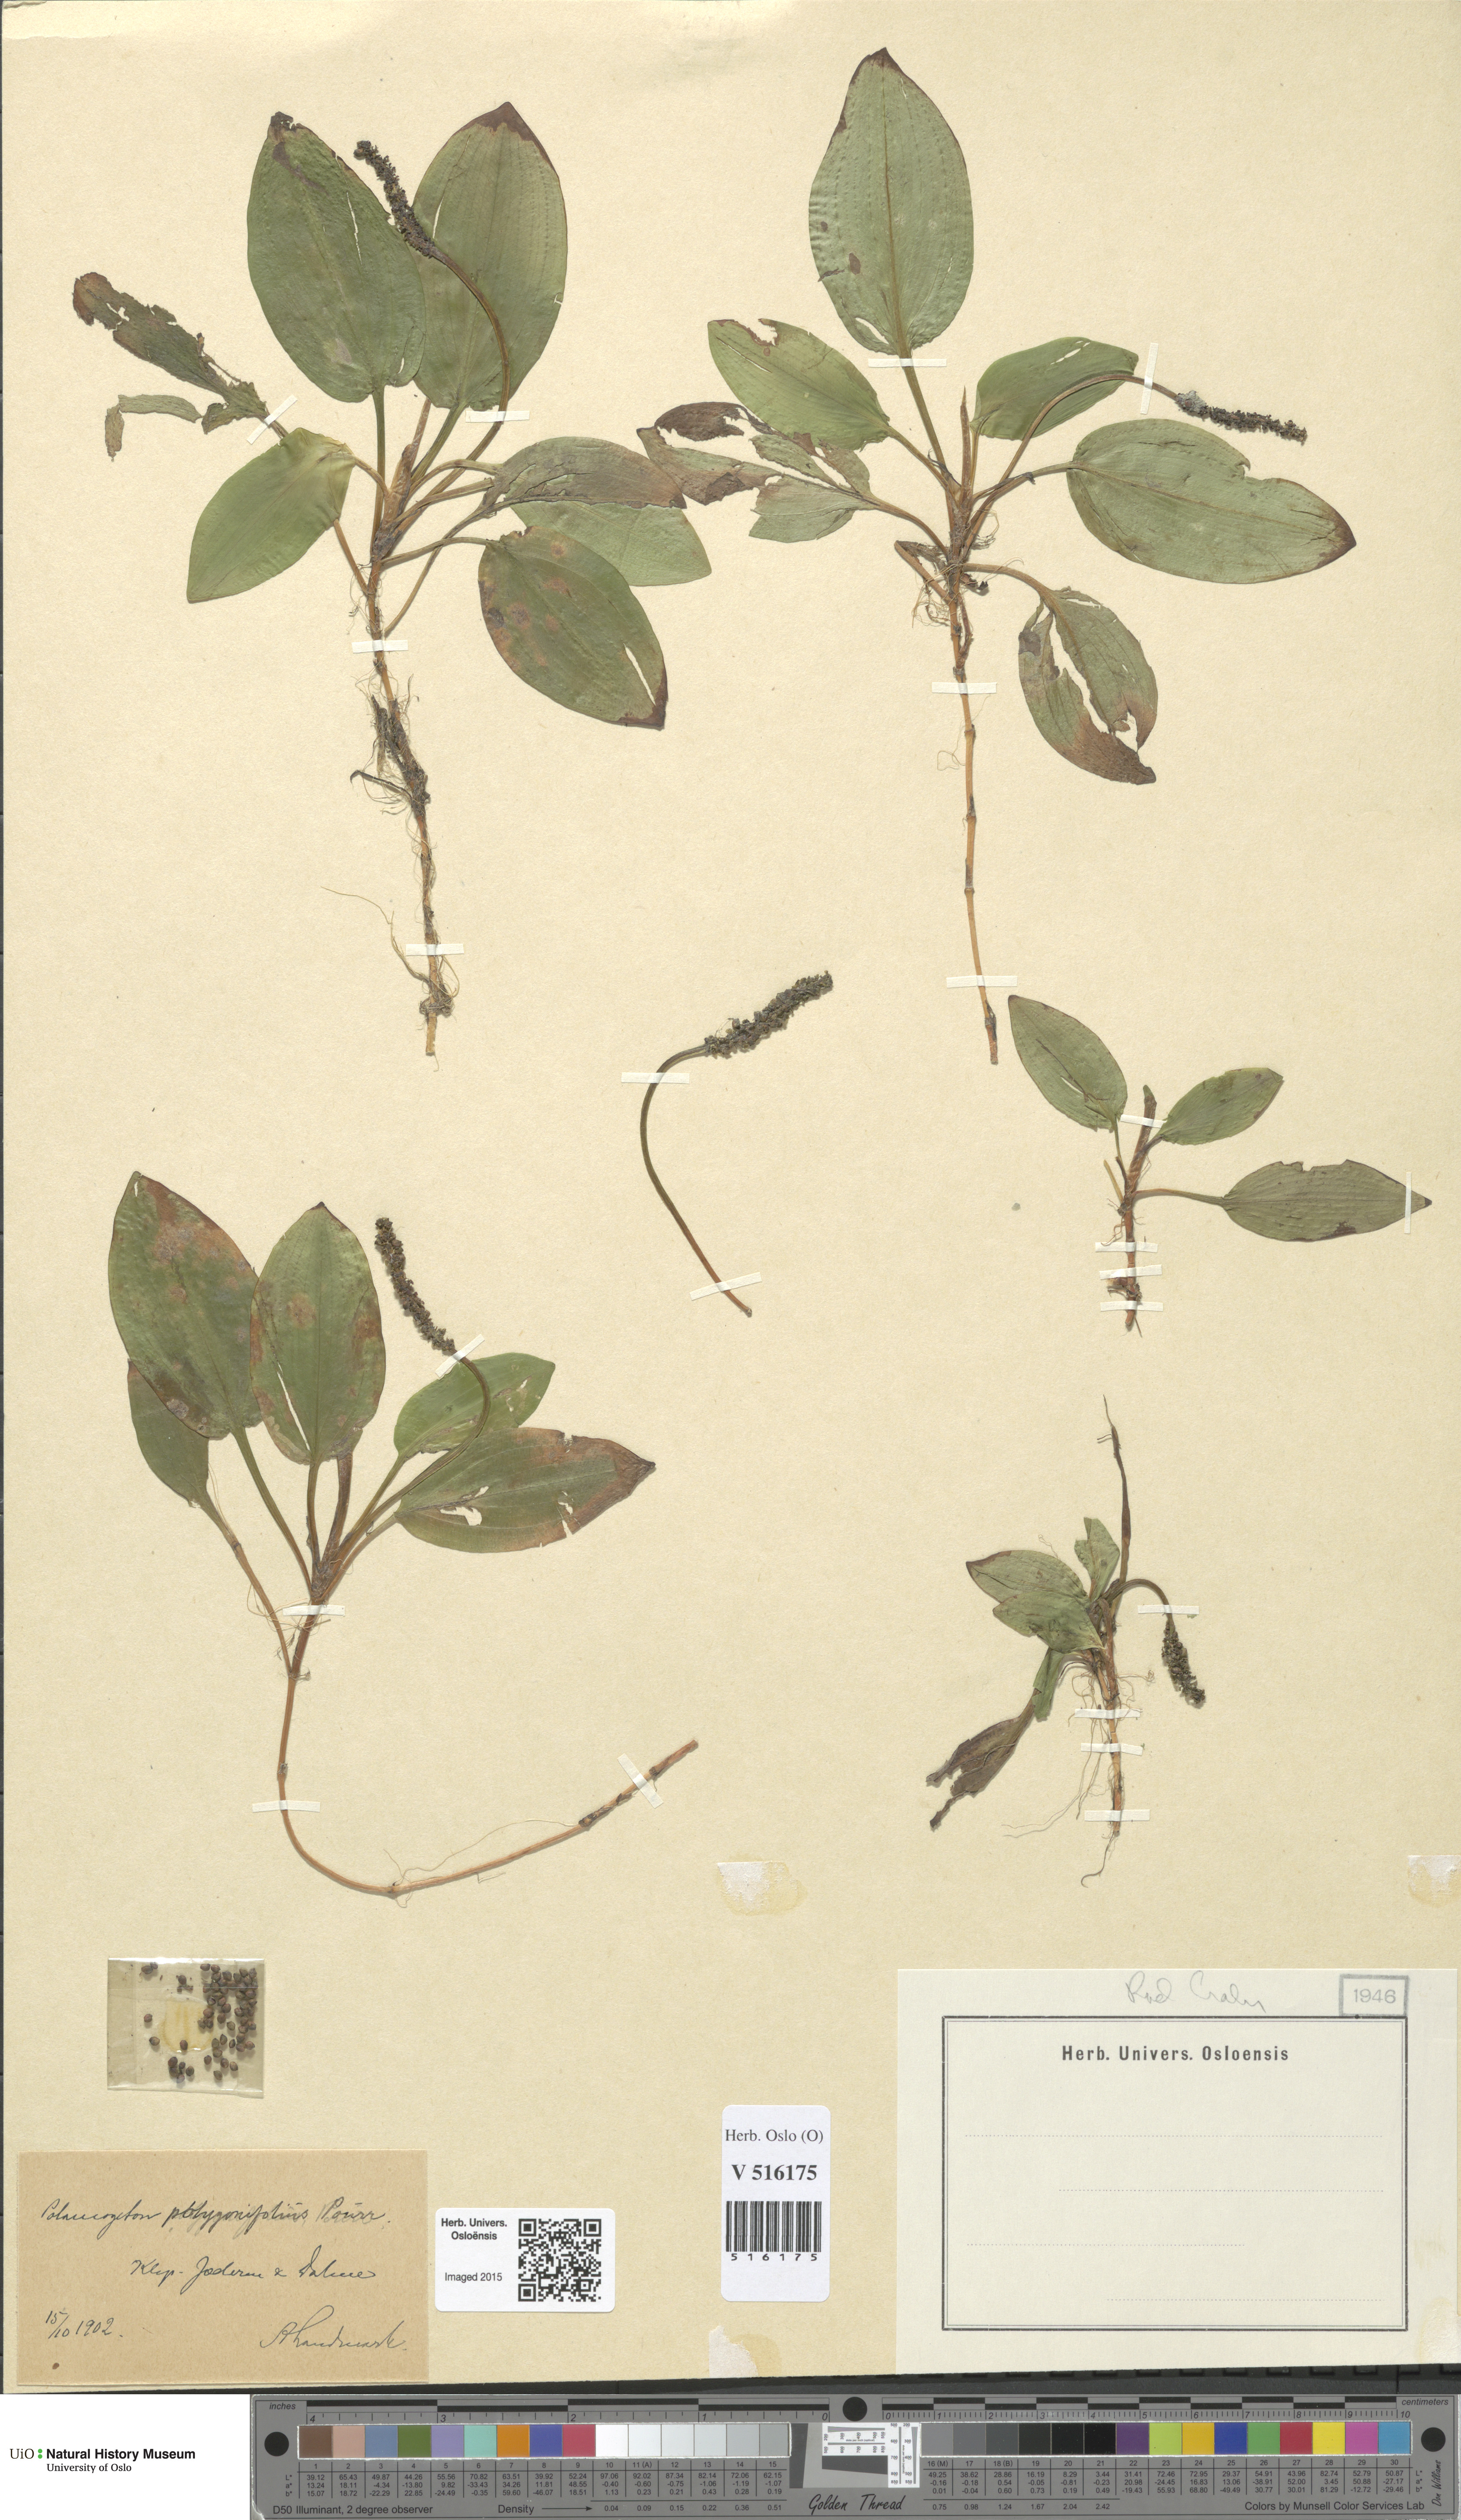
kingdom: Plantae
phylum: Tracheophyta
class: Liliopsida
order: Alismatales
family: Potamogetonaceae
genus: Potamogeton
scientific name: Potamogeton polygonifolius
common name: Bog pondweed
